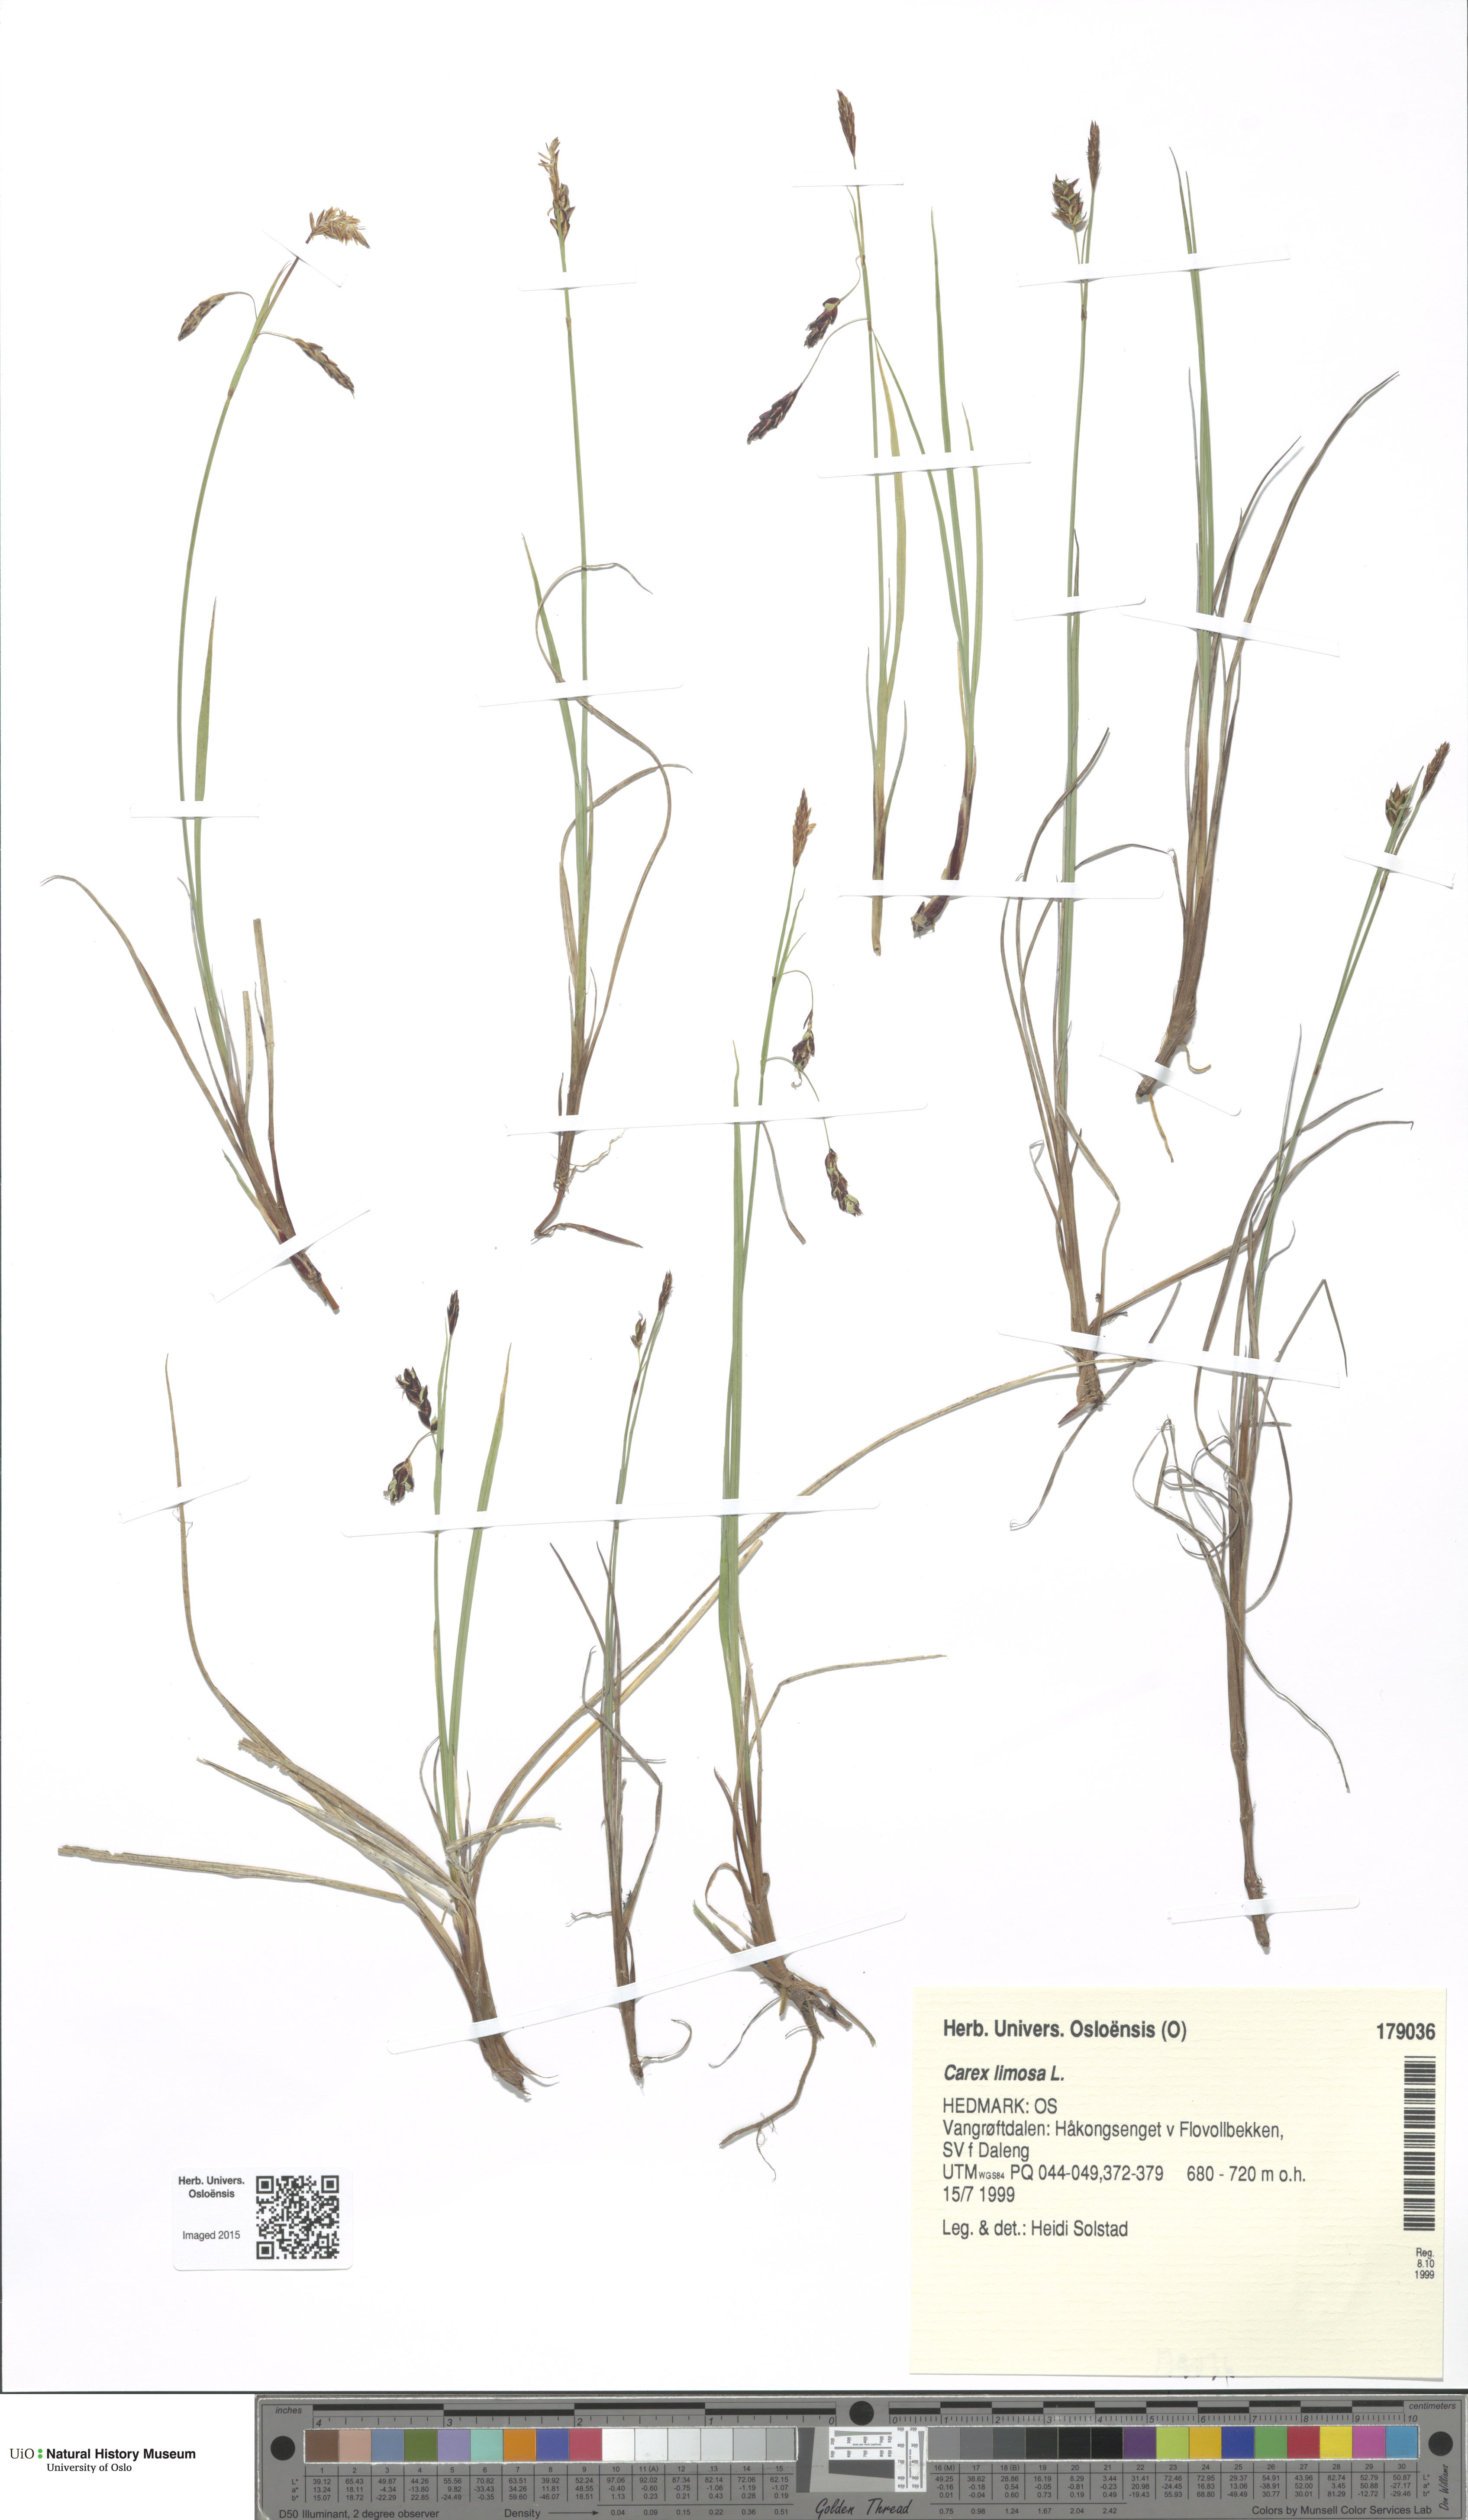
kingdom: Plantae
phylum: Tracheophyta
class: Liliopsida
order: Poales
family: Cyperaceae
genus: Carex
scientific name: Carex limosa
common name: Bog sedge
